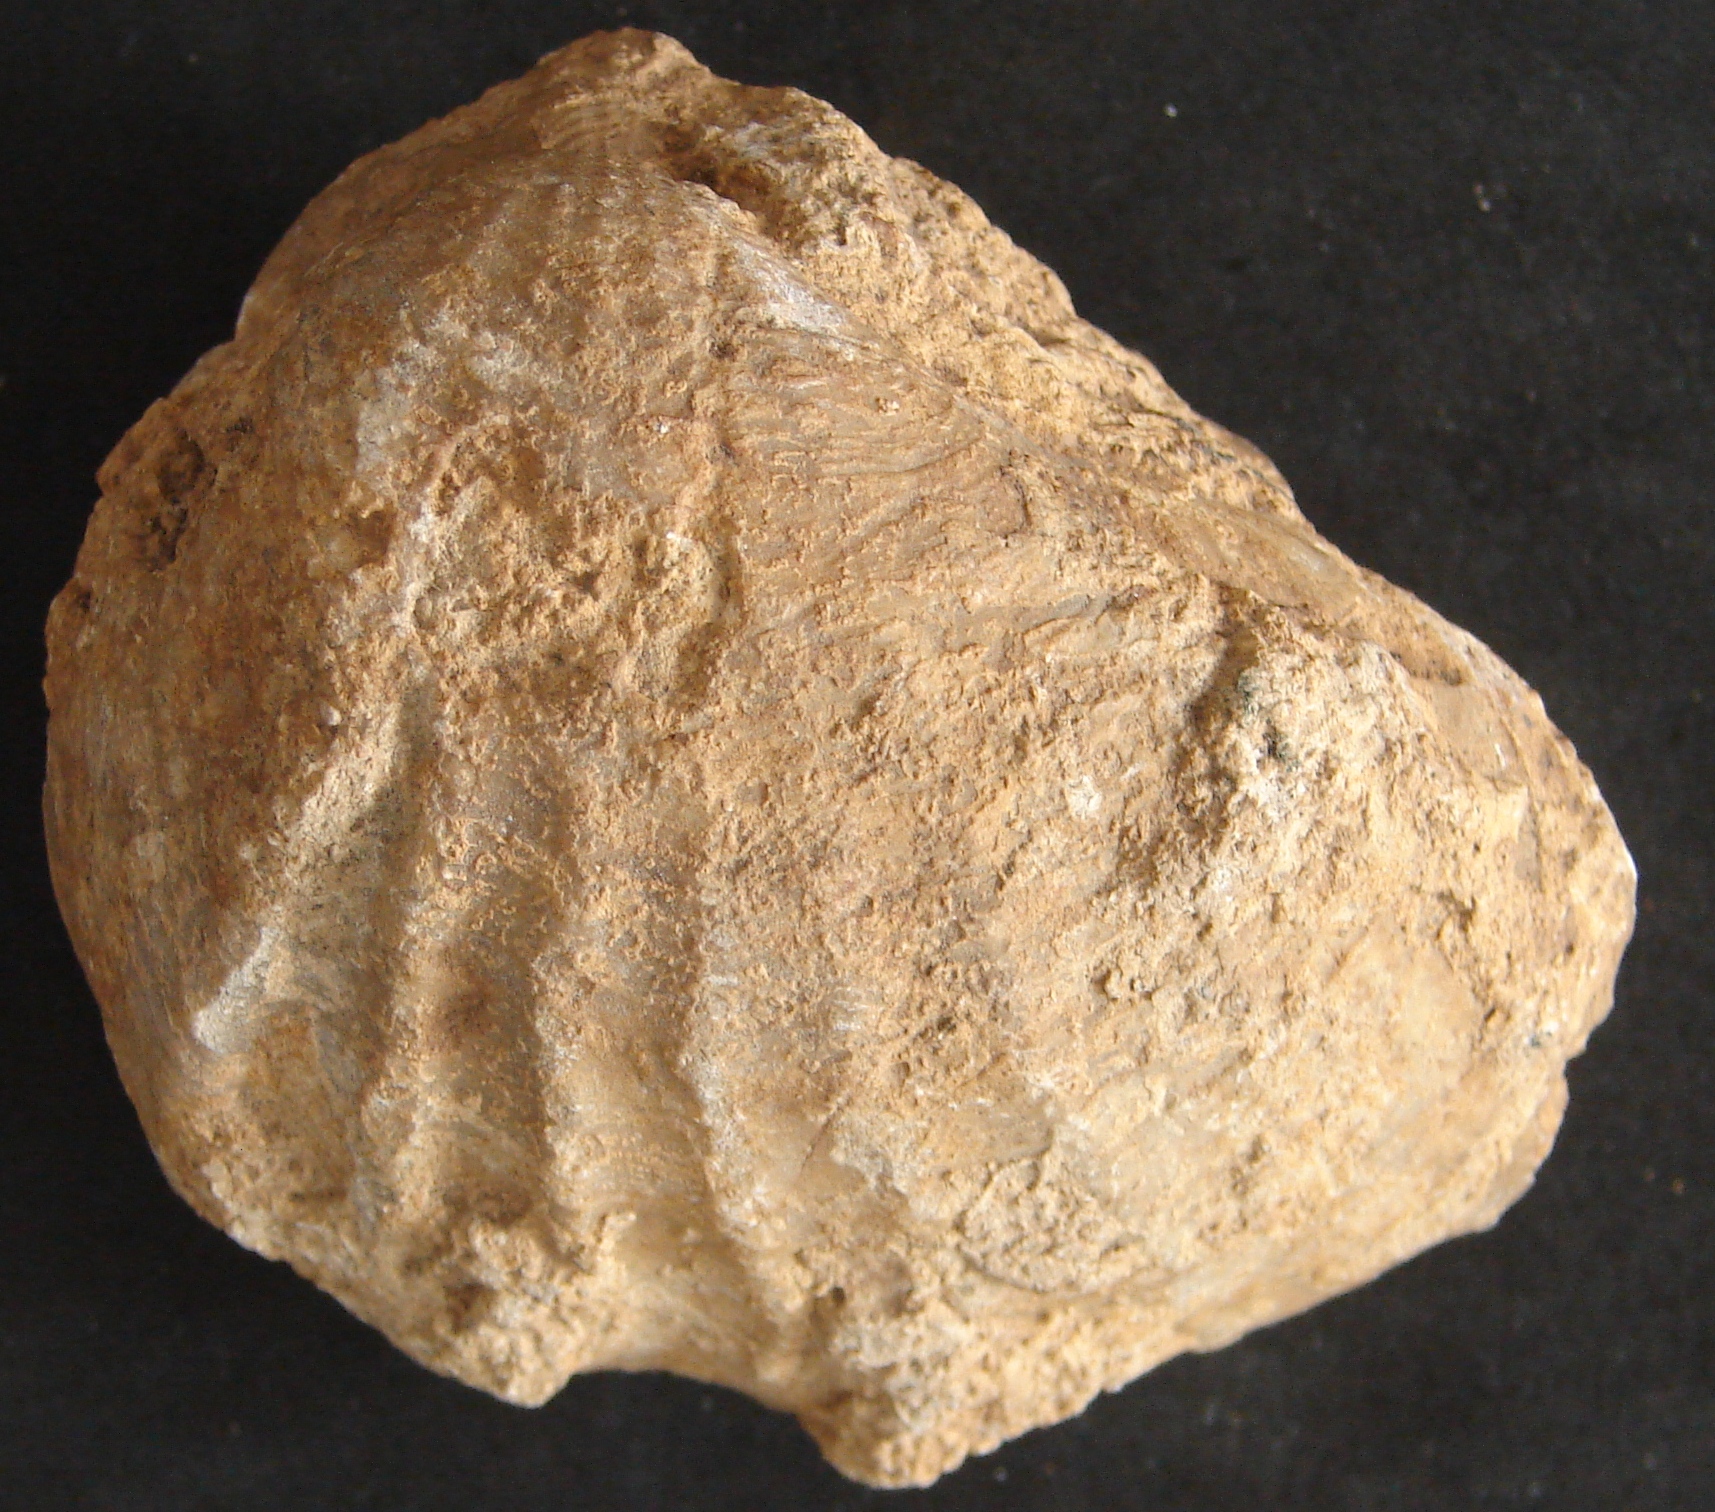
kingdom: Animalia
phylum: Mollusca
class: Bivalvia
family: Pholadomyidae
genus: Pholadomya
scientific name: Pholadomya murchisoni
